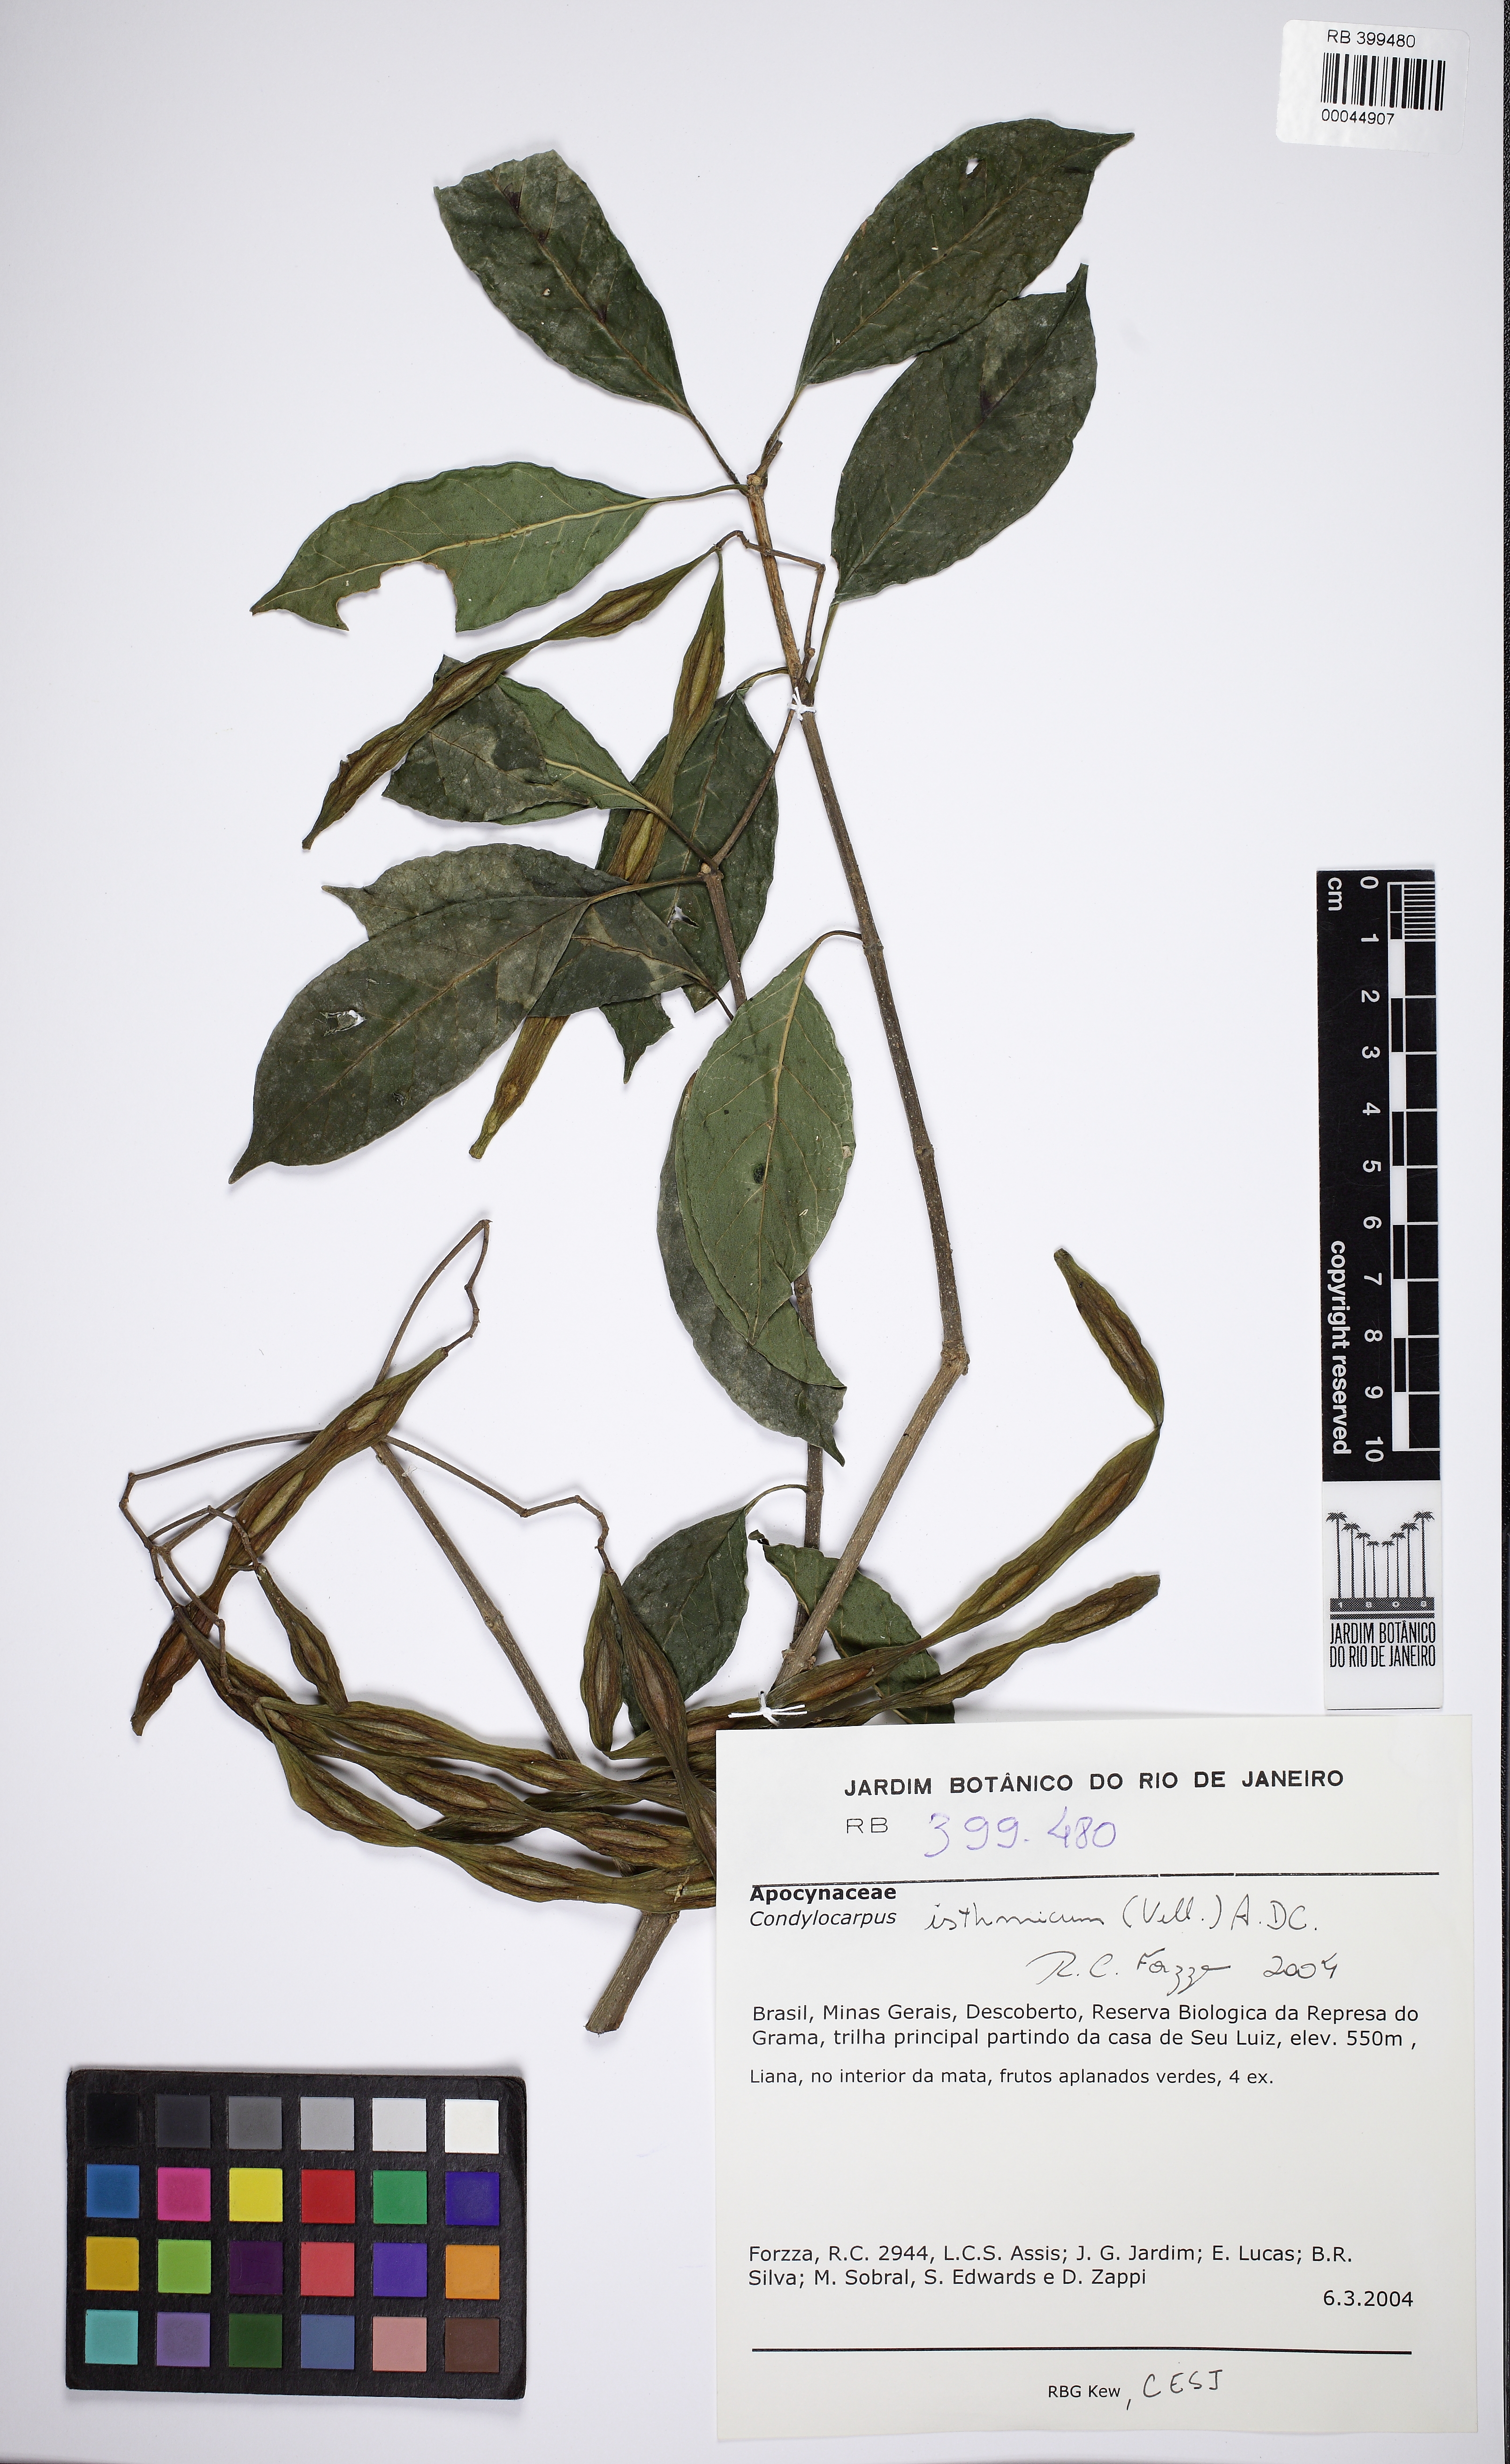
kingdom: Plantae
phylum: Tracheophyta
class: Magnoliopsida
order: Gentianales
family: Apocynaceae
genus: Condylocarpon
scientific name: Condylocarpon isthmicum
